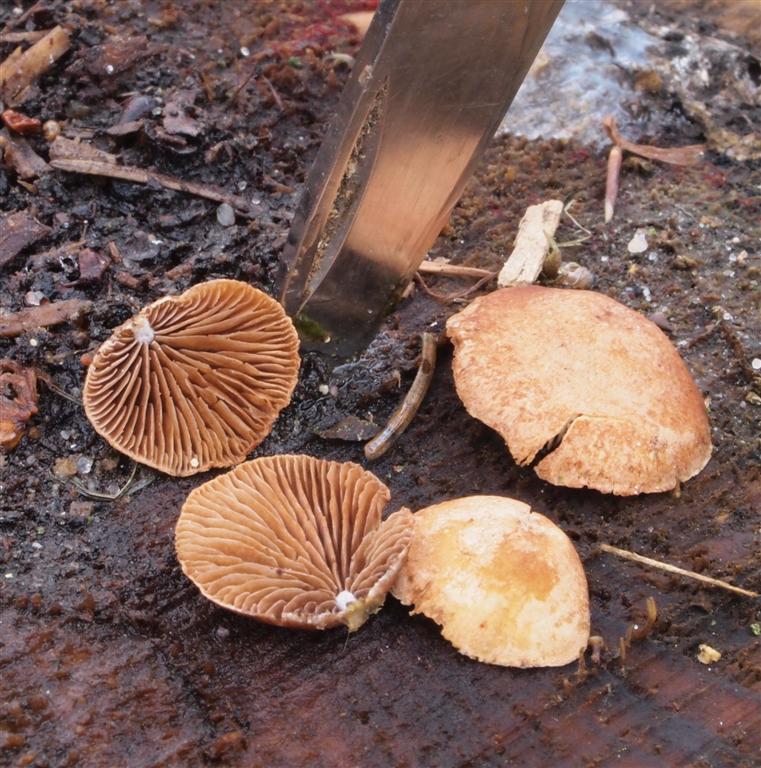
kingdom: Fungi
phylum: Basidiomycota
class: Agaricomycetes
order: Agaricales
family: Strophariaceae
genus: Deconica
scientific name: Deconica horizontalis
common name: ved-stråhat
